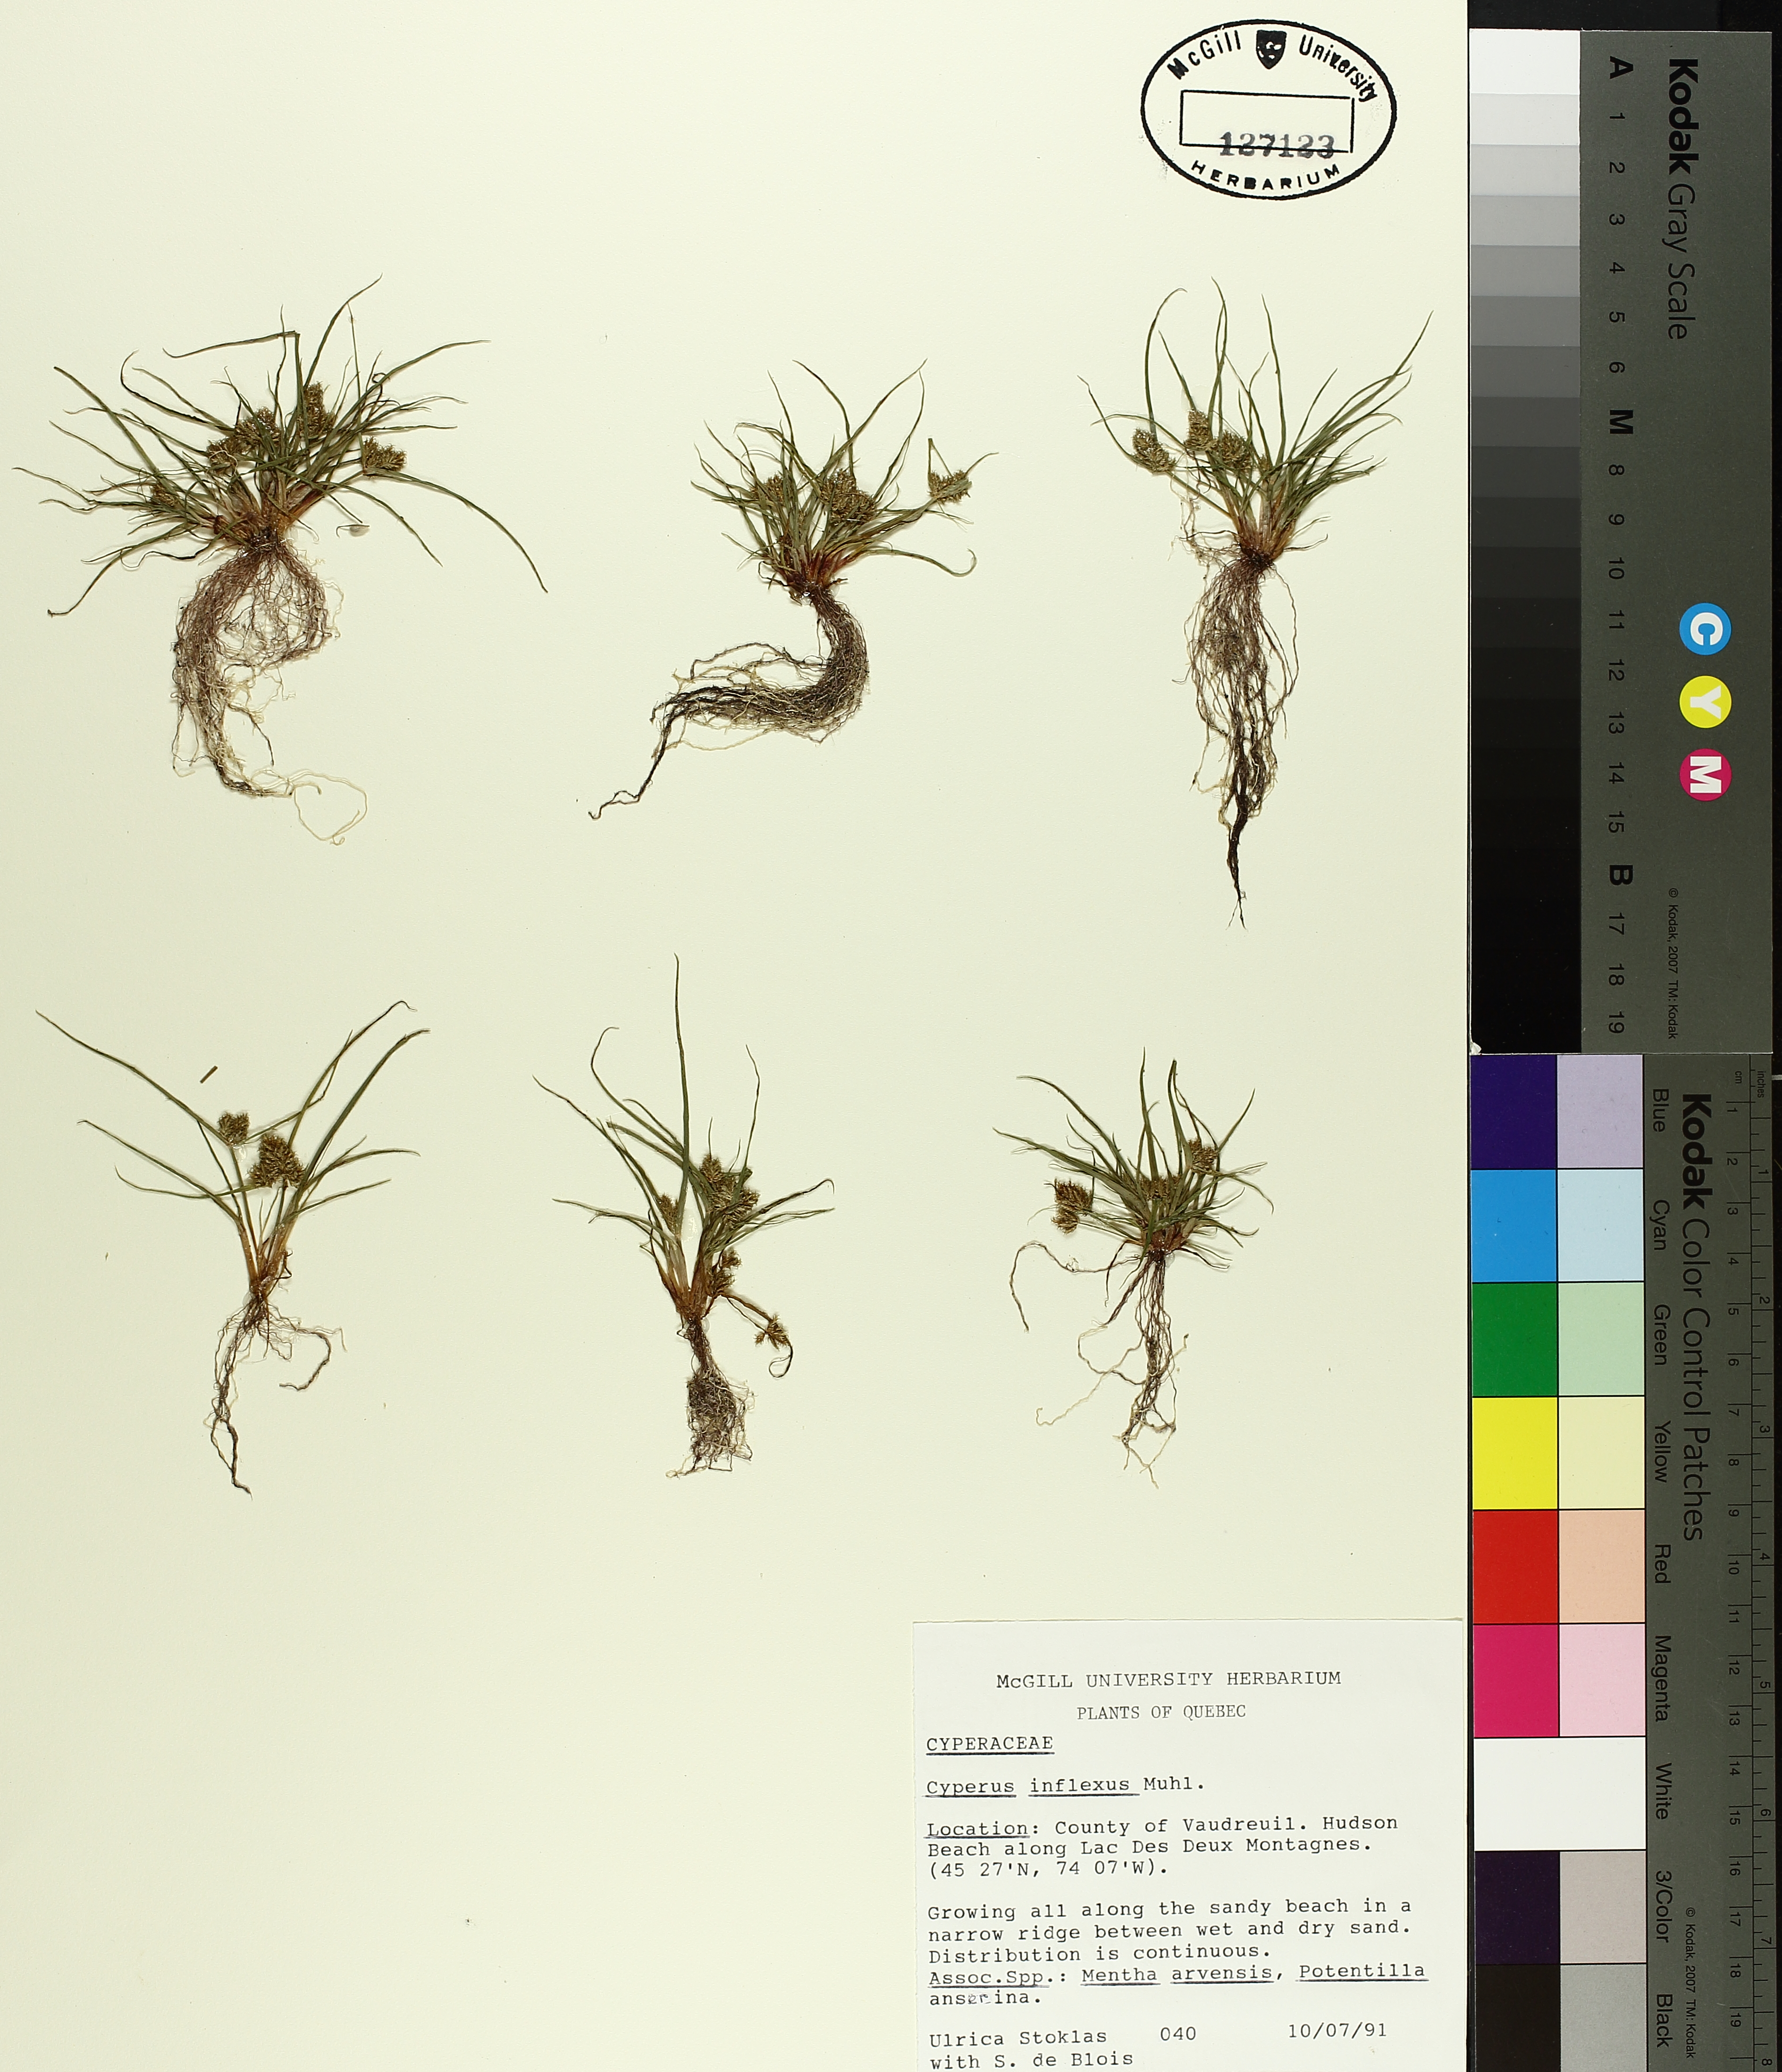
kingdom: Plantae
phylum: Tracheophyta
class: Liliopsida
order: Poales
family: Cyperaceae
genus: Cyperus
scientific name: Cyperus squarrosus
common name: Awned cyperus
